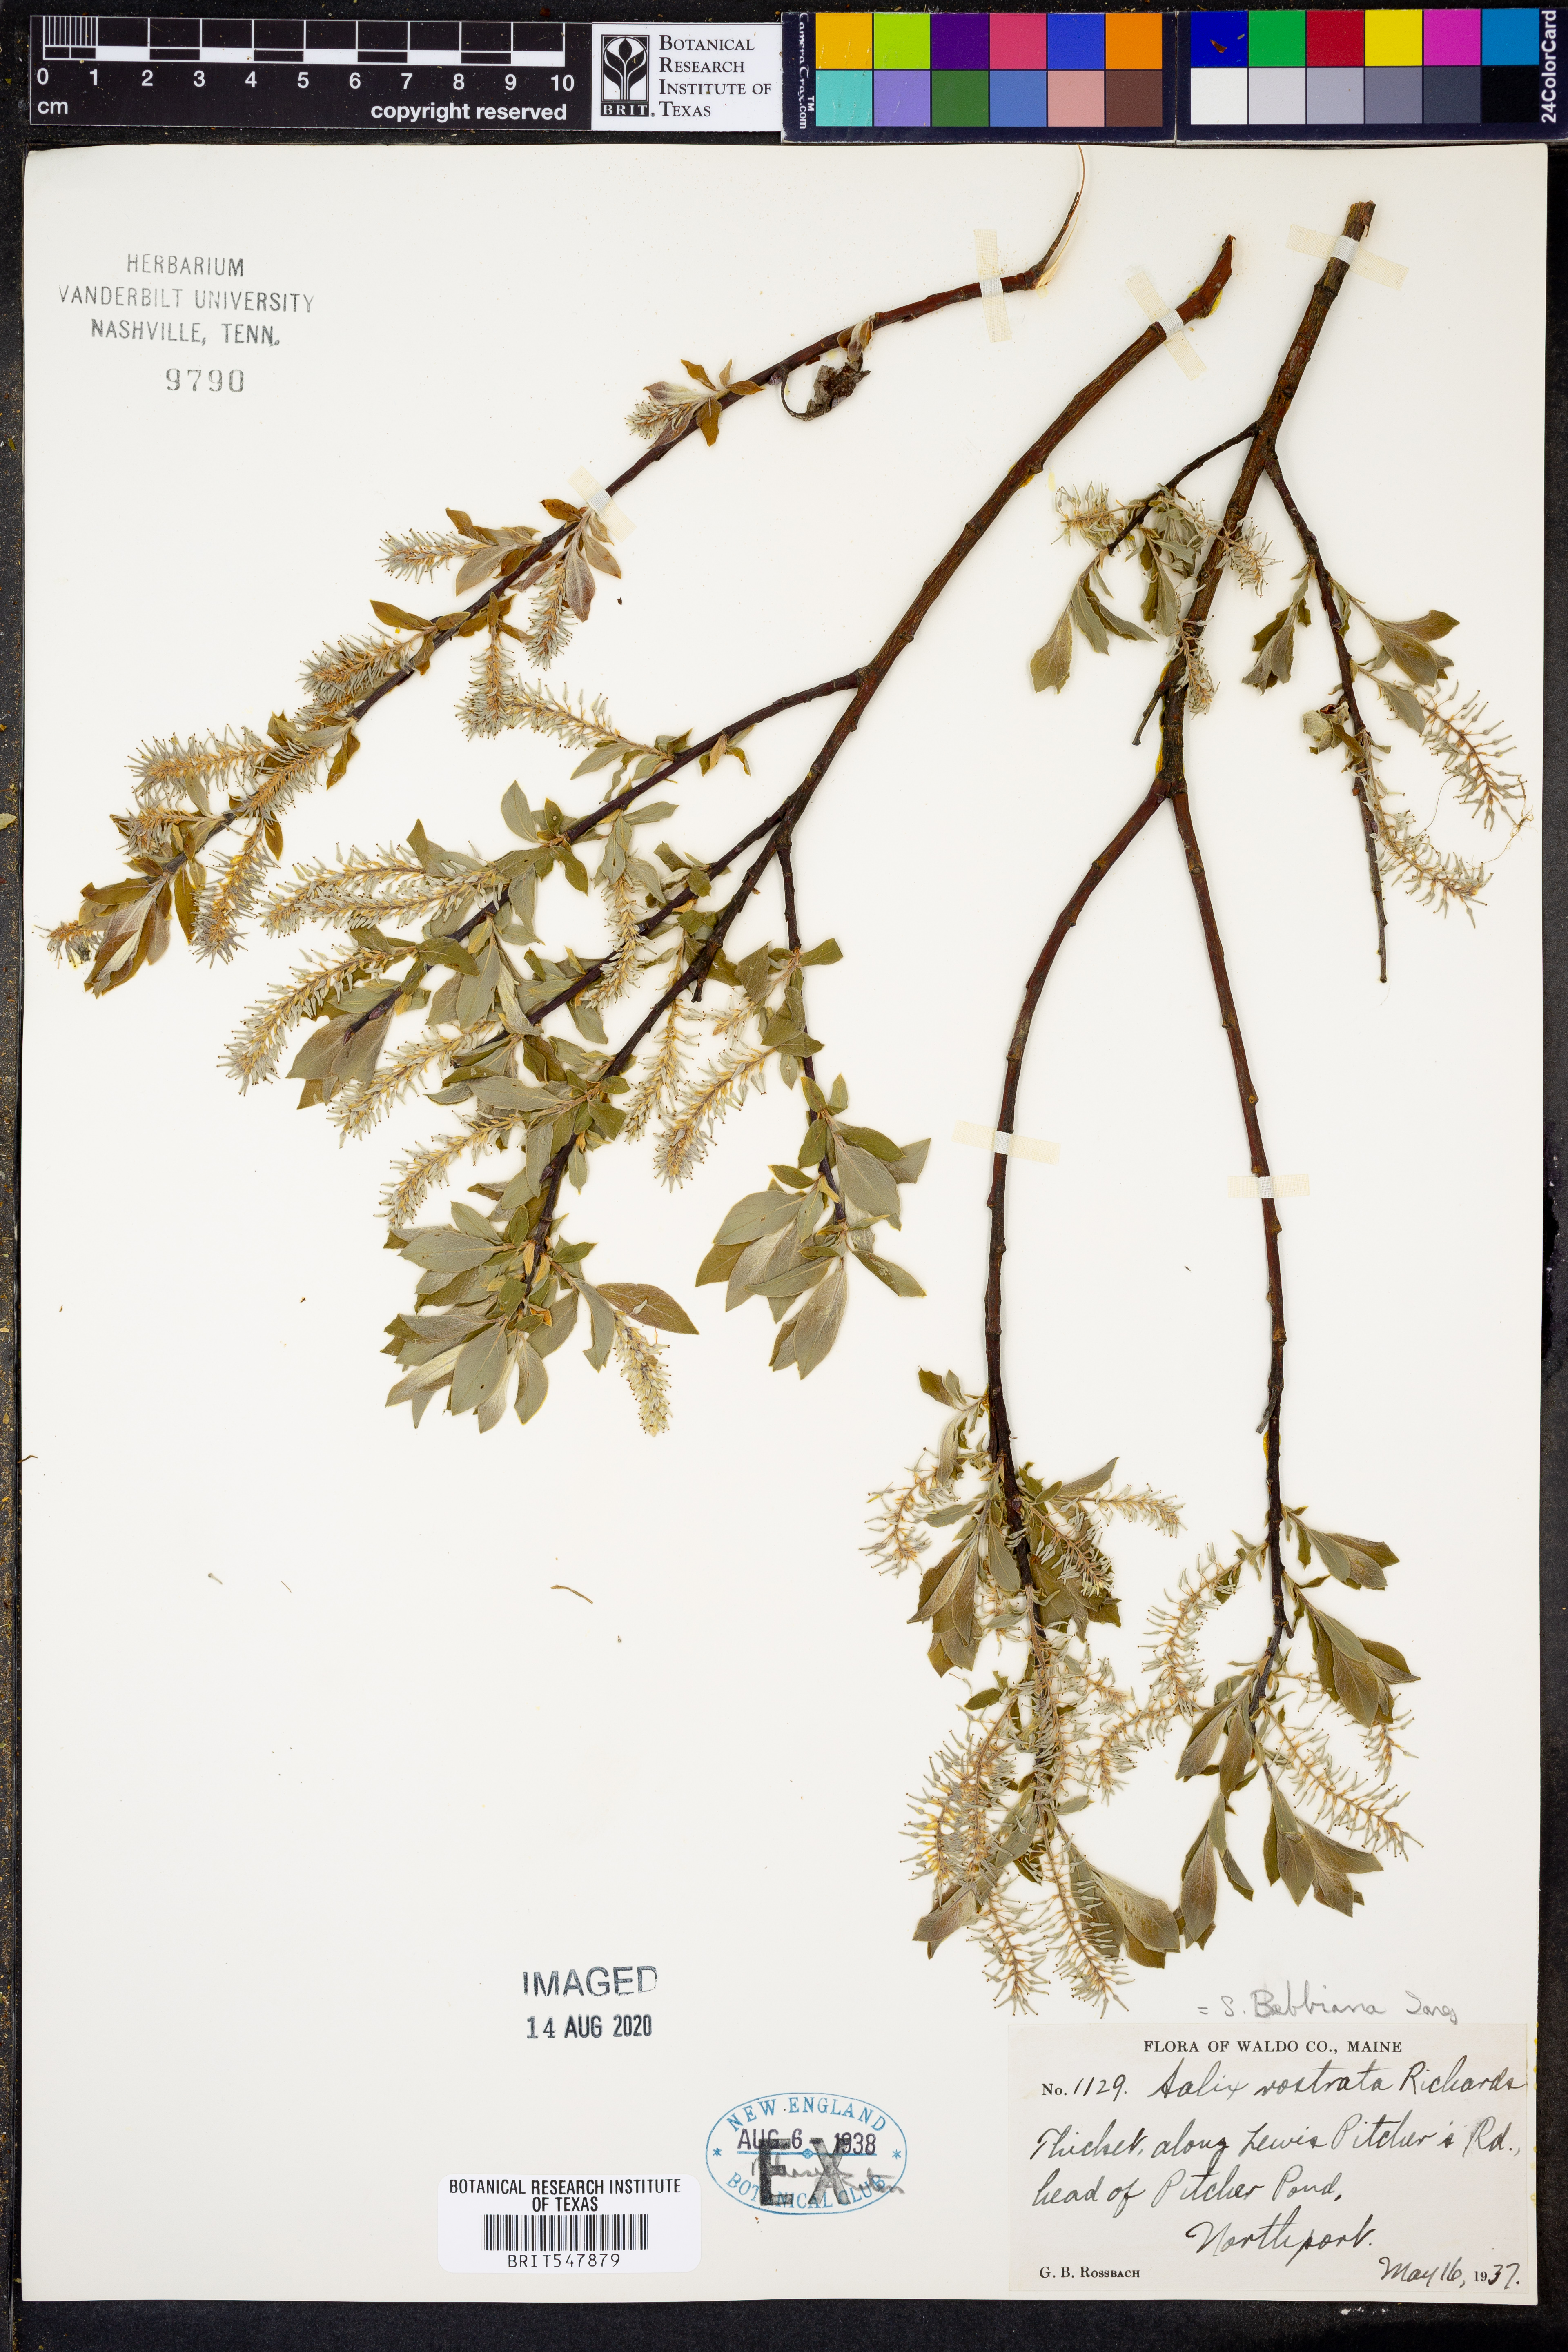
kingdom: Plantae
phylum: Tracheophyta
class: Magnoliopsida
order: Malpighiales
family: Salicaceae
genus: Salix
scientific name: Salix bebbiana
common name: Bebb's willow
